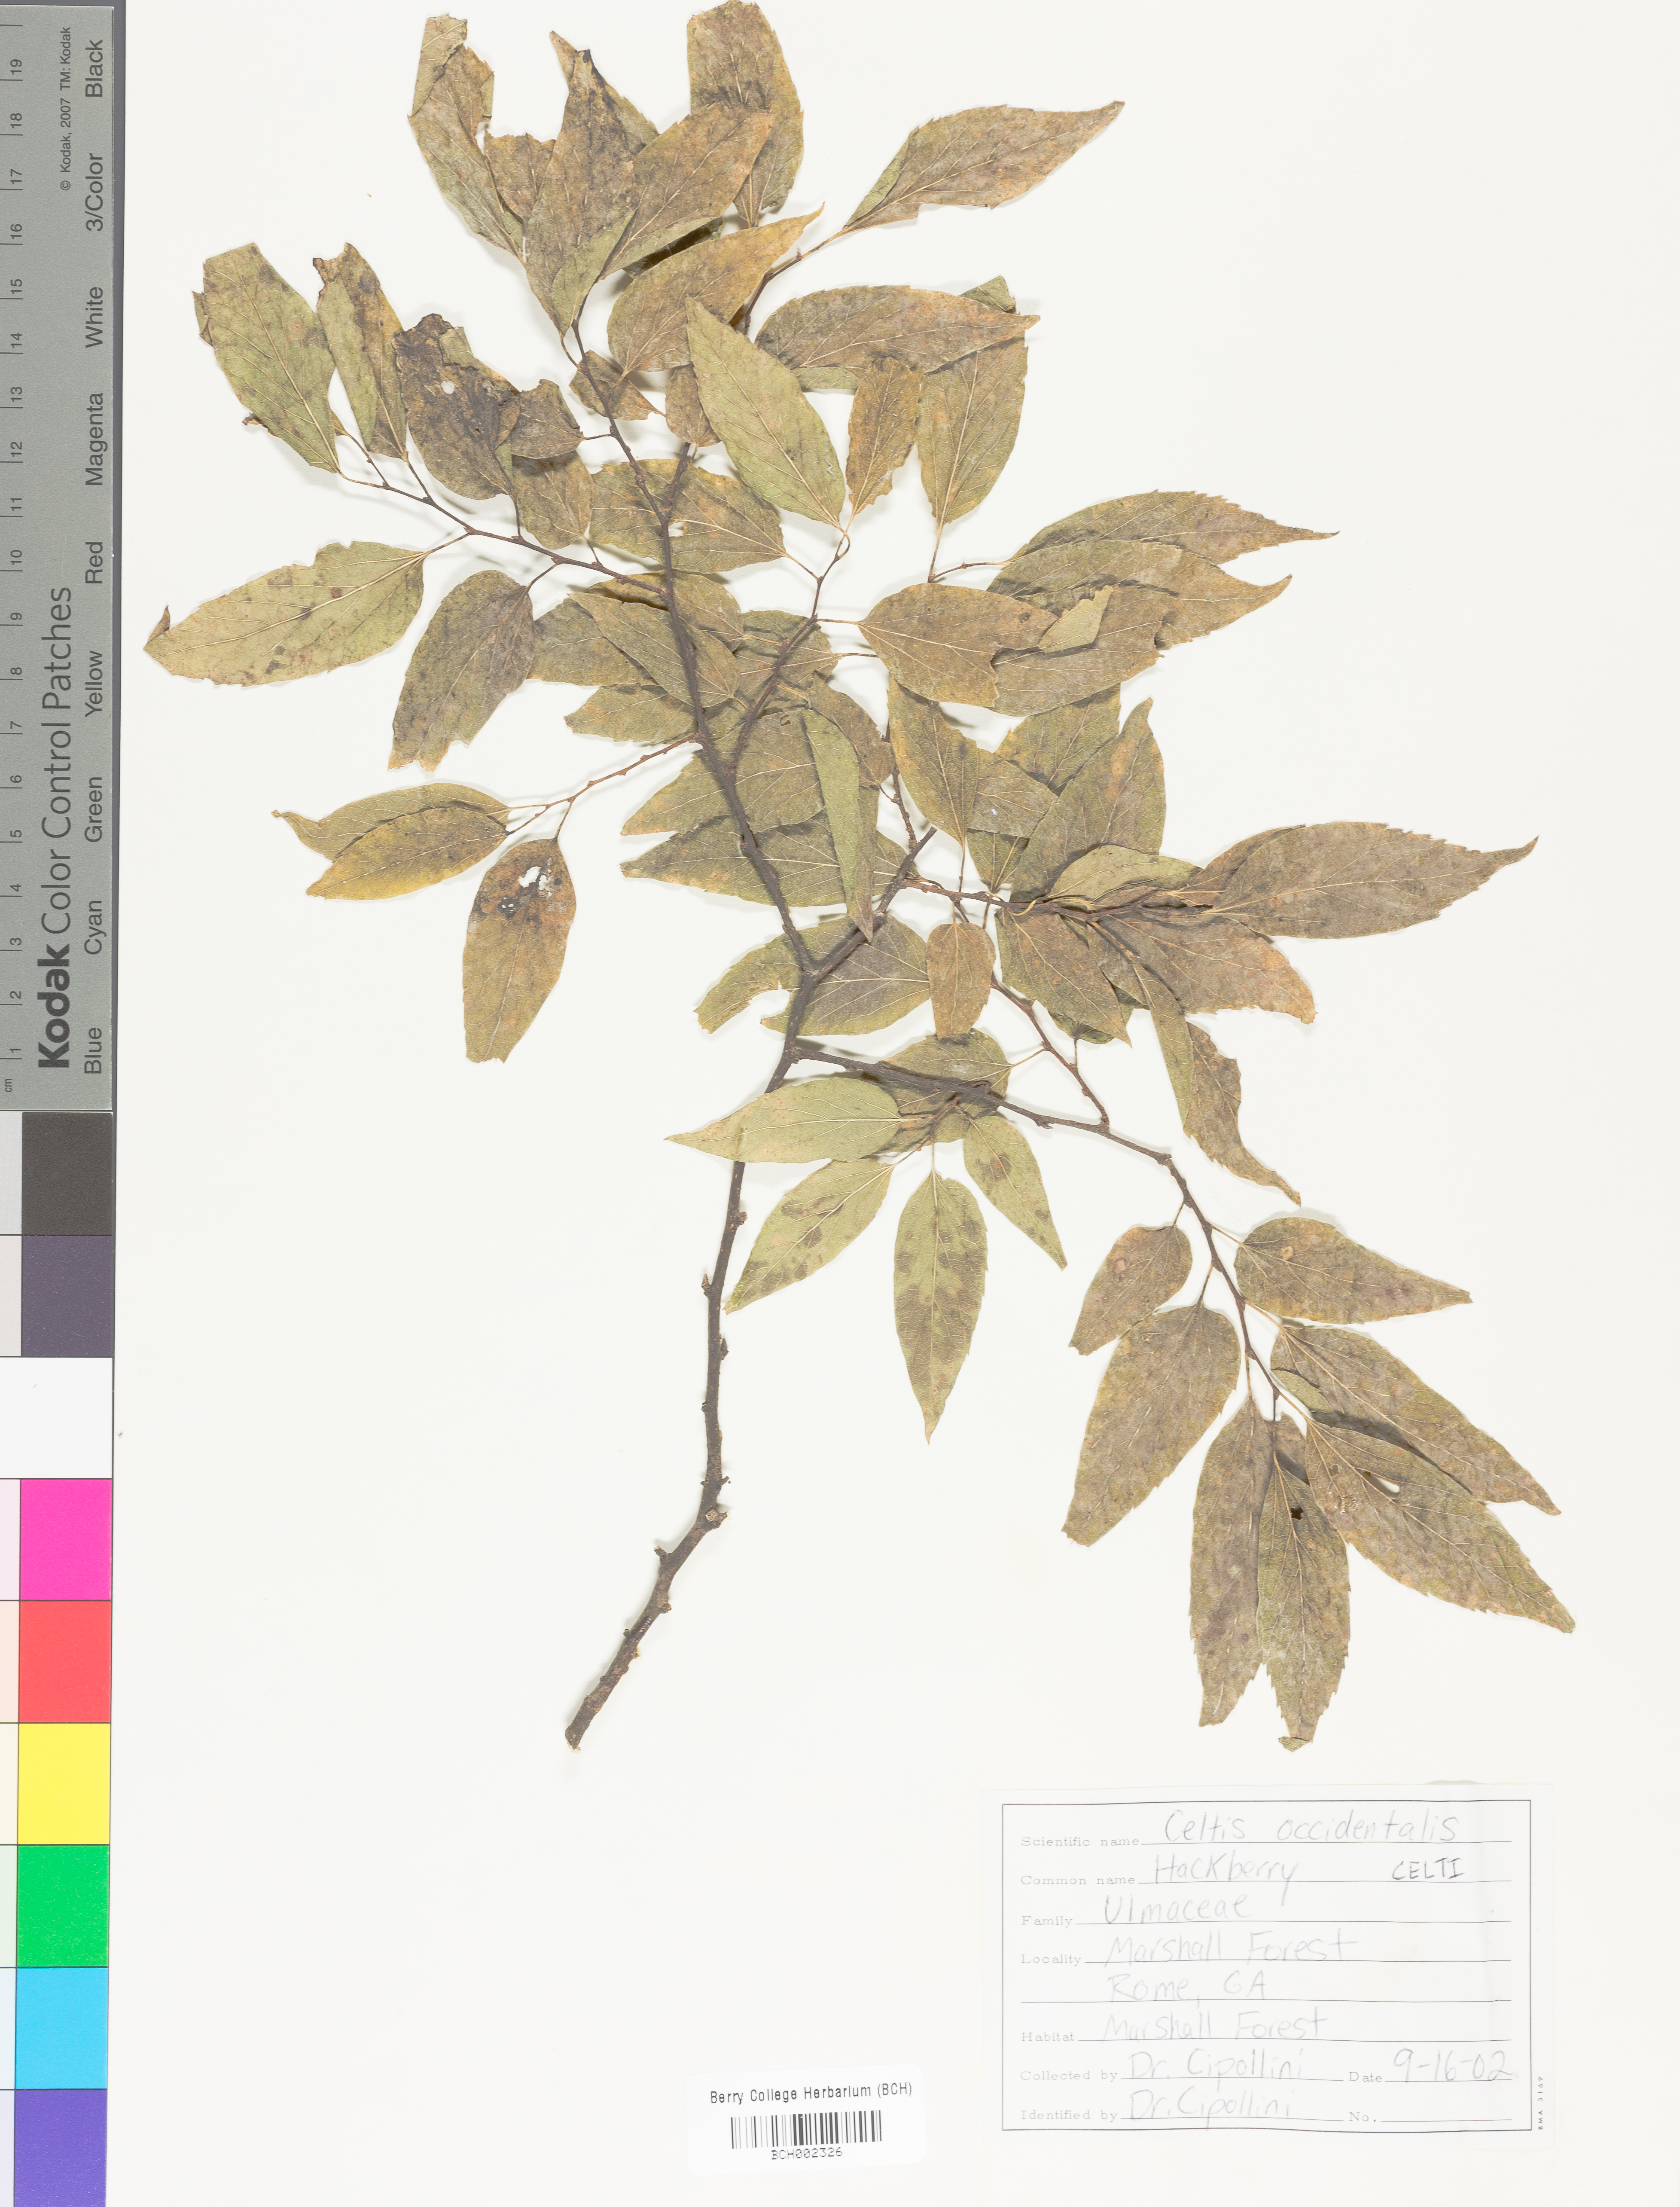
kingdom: Plantae
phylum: Tracheophyta
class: Magnoliopsida
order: Rosales
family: Cannabaceae
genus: Celtis
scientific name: Celtis
